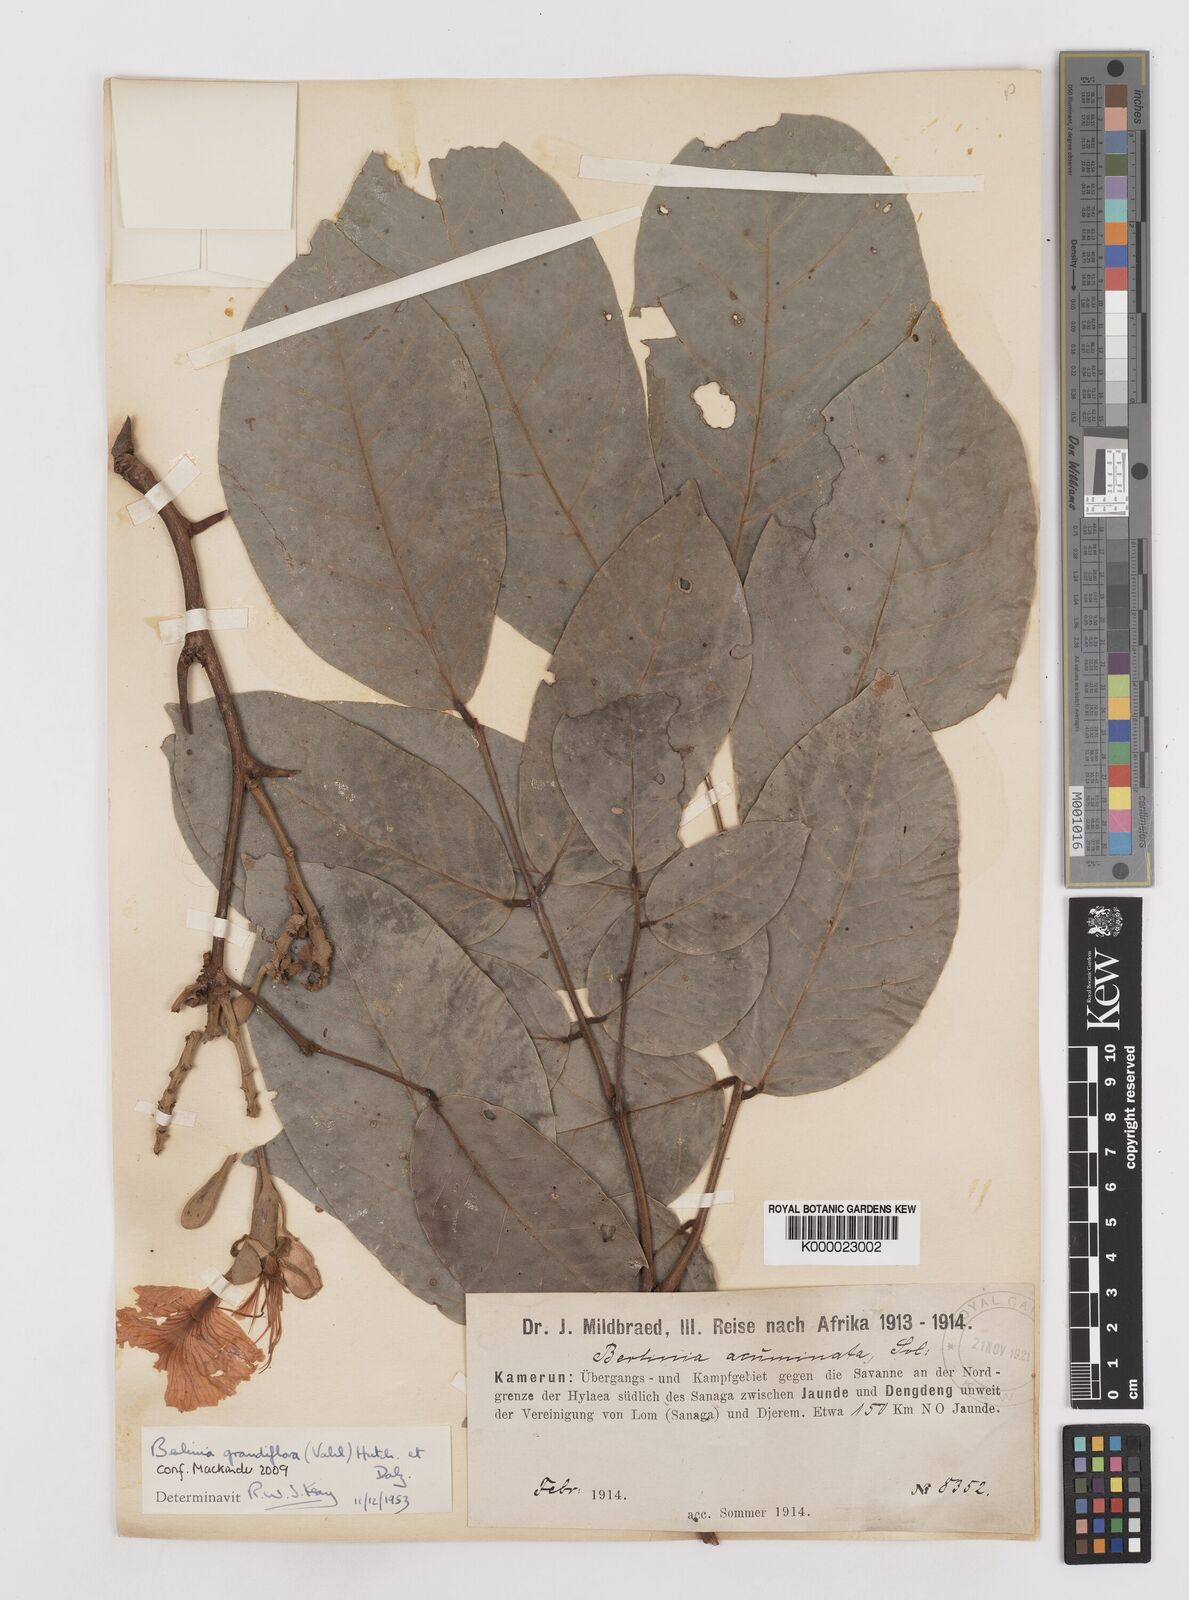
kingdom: Plantae
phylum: Tracheophyta
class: Magnoliopsida
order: Fabales
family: Fabaceae
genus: Berlinia
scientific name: Berlinia grandiflora
